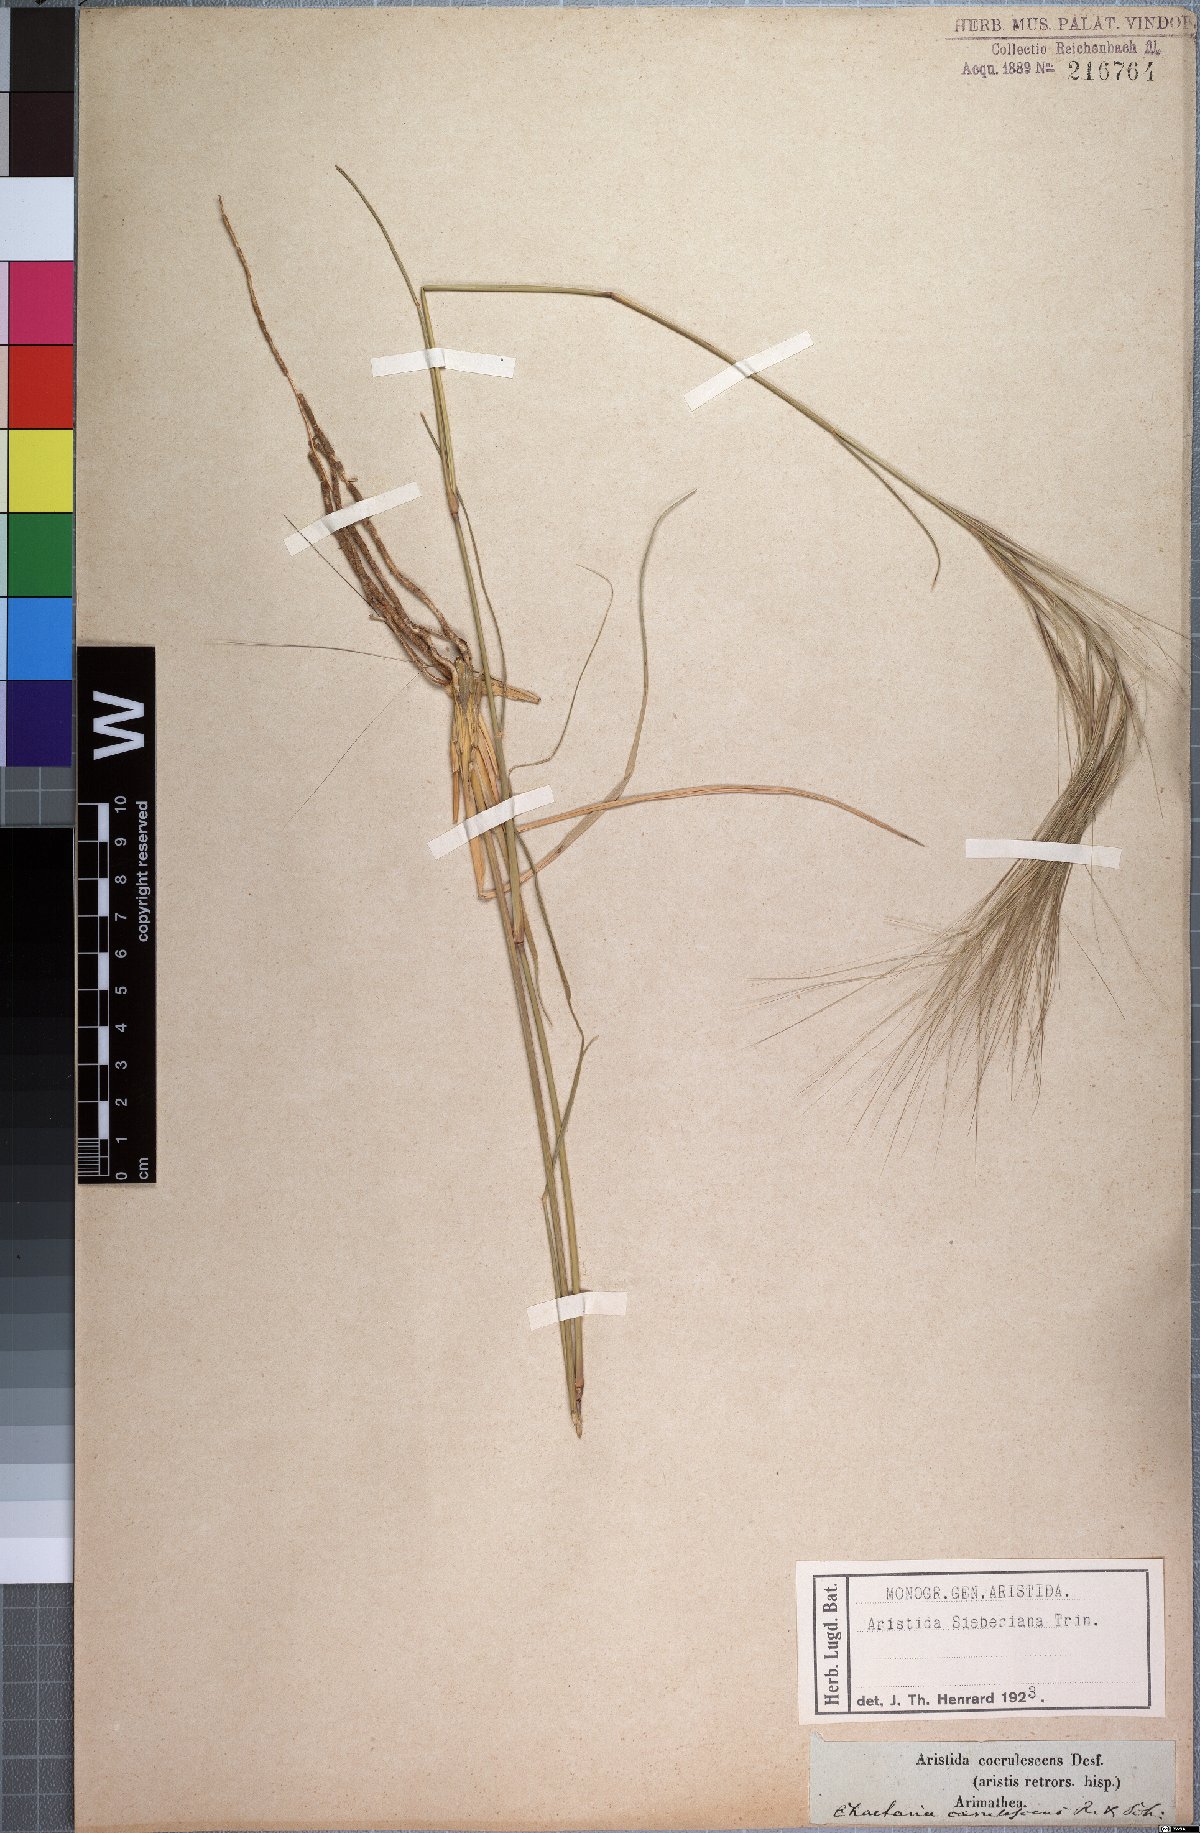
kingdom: Plantae
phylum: Tracheophyta
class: Liliopsida
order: Poales
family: Poaceae
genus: Aristida
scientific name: Aristida sieberiana
